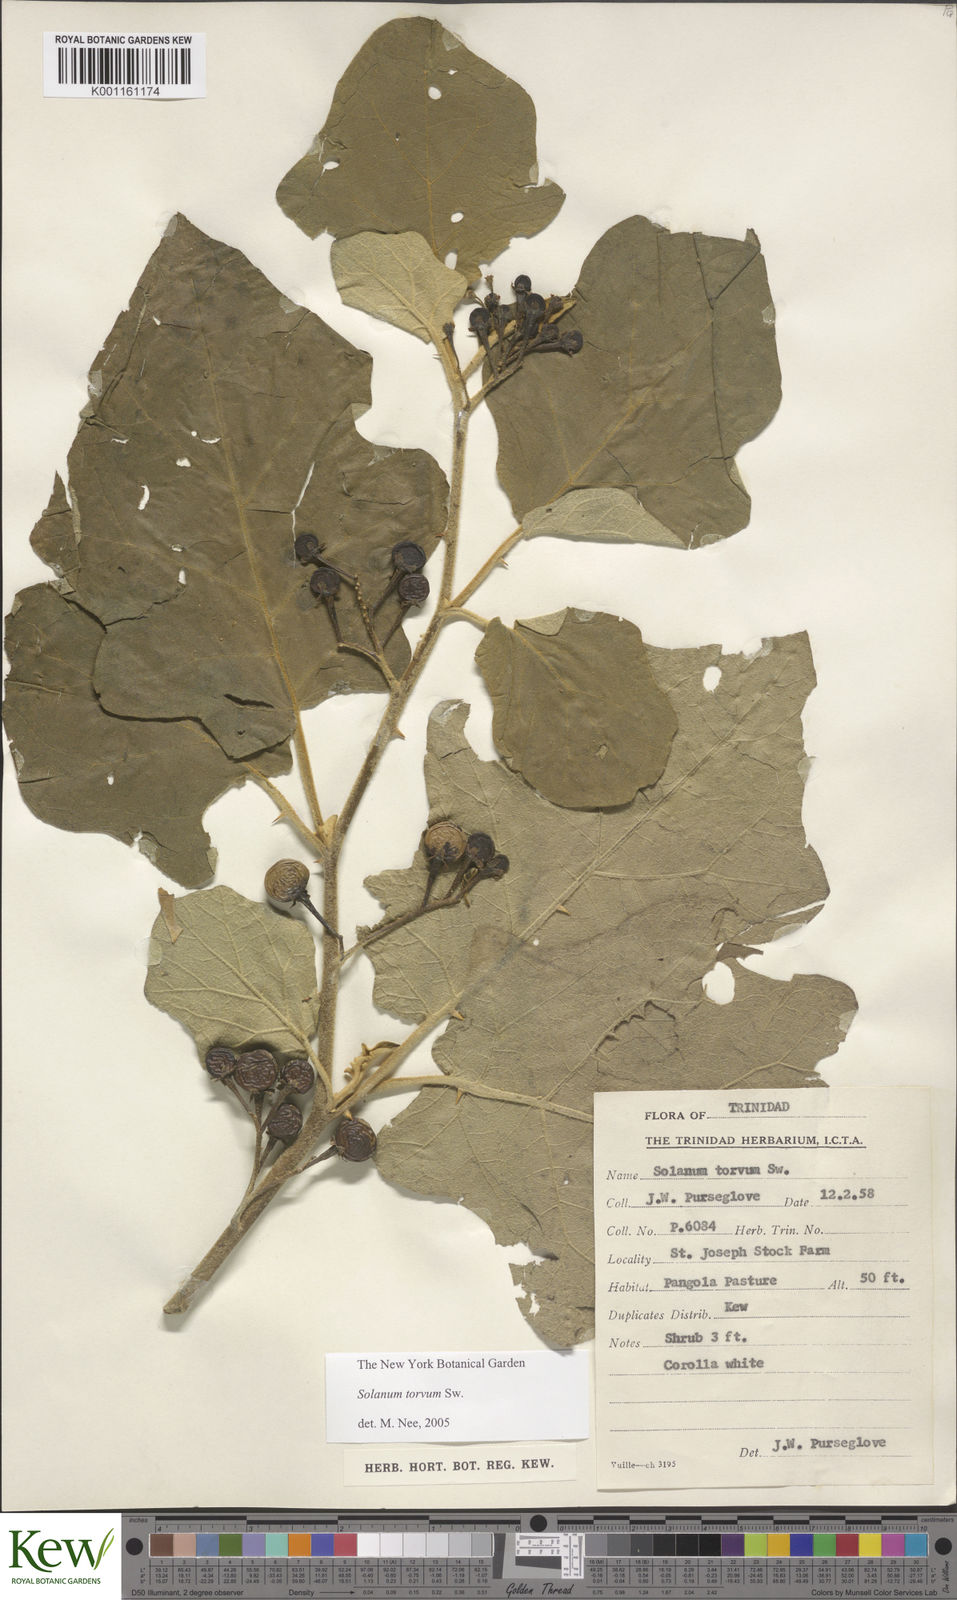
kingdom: Plantae
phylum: Tracheophyta
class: Magnoliopsida
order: Solanales
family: Solanaceae
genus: Solanum
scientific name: Solanum torvum
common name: Turkey berry
